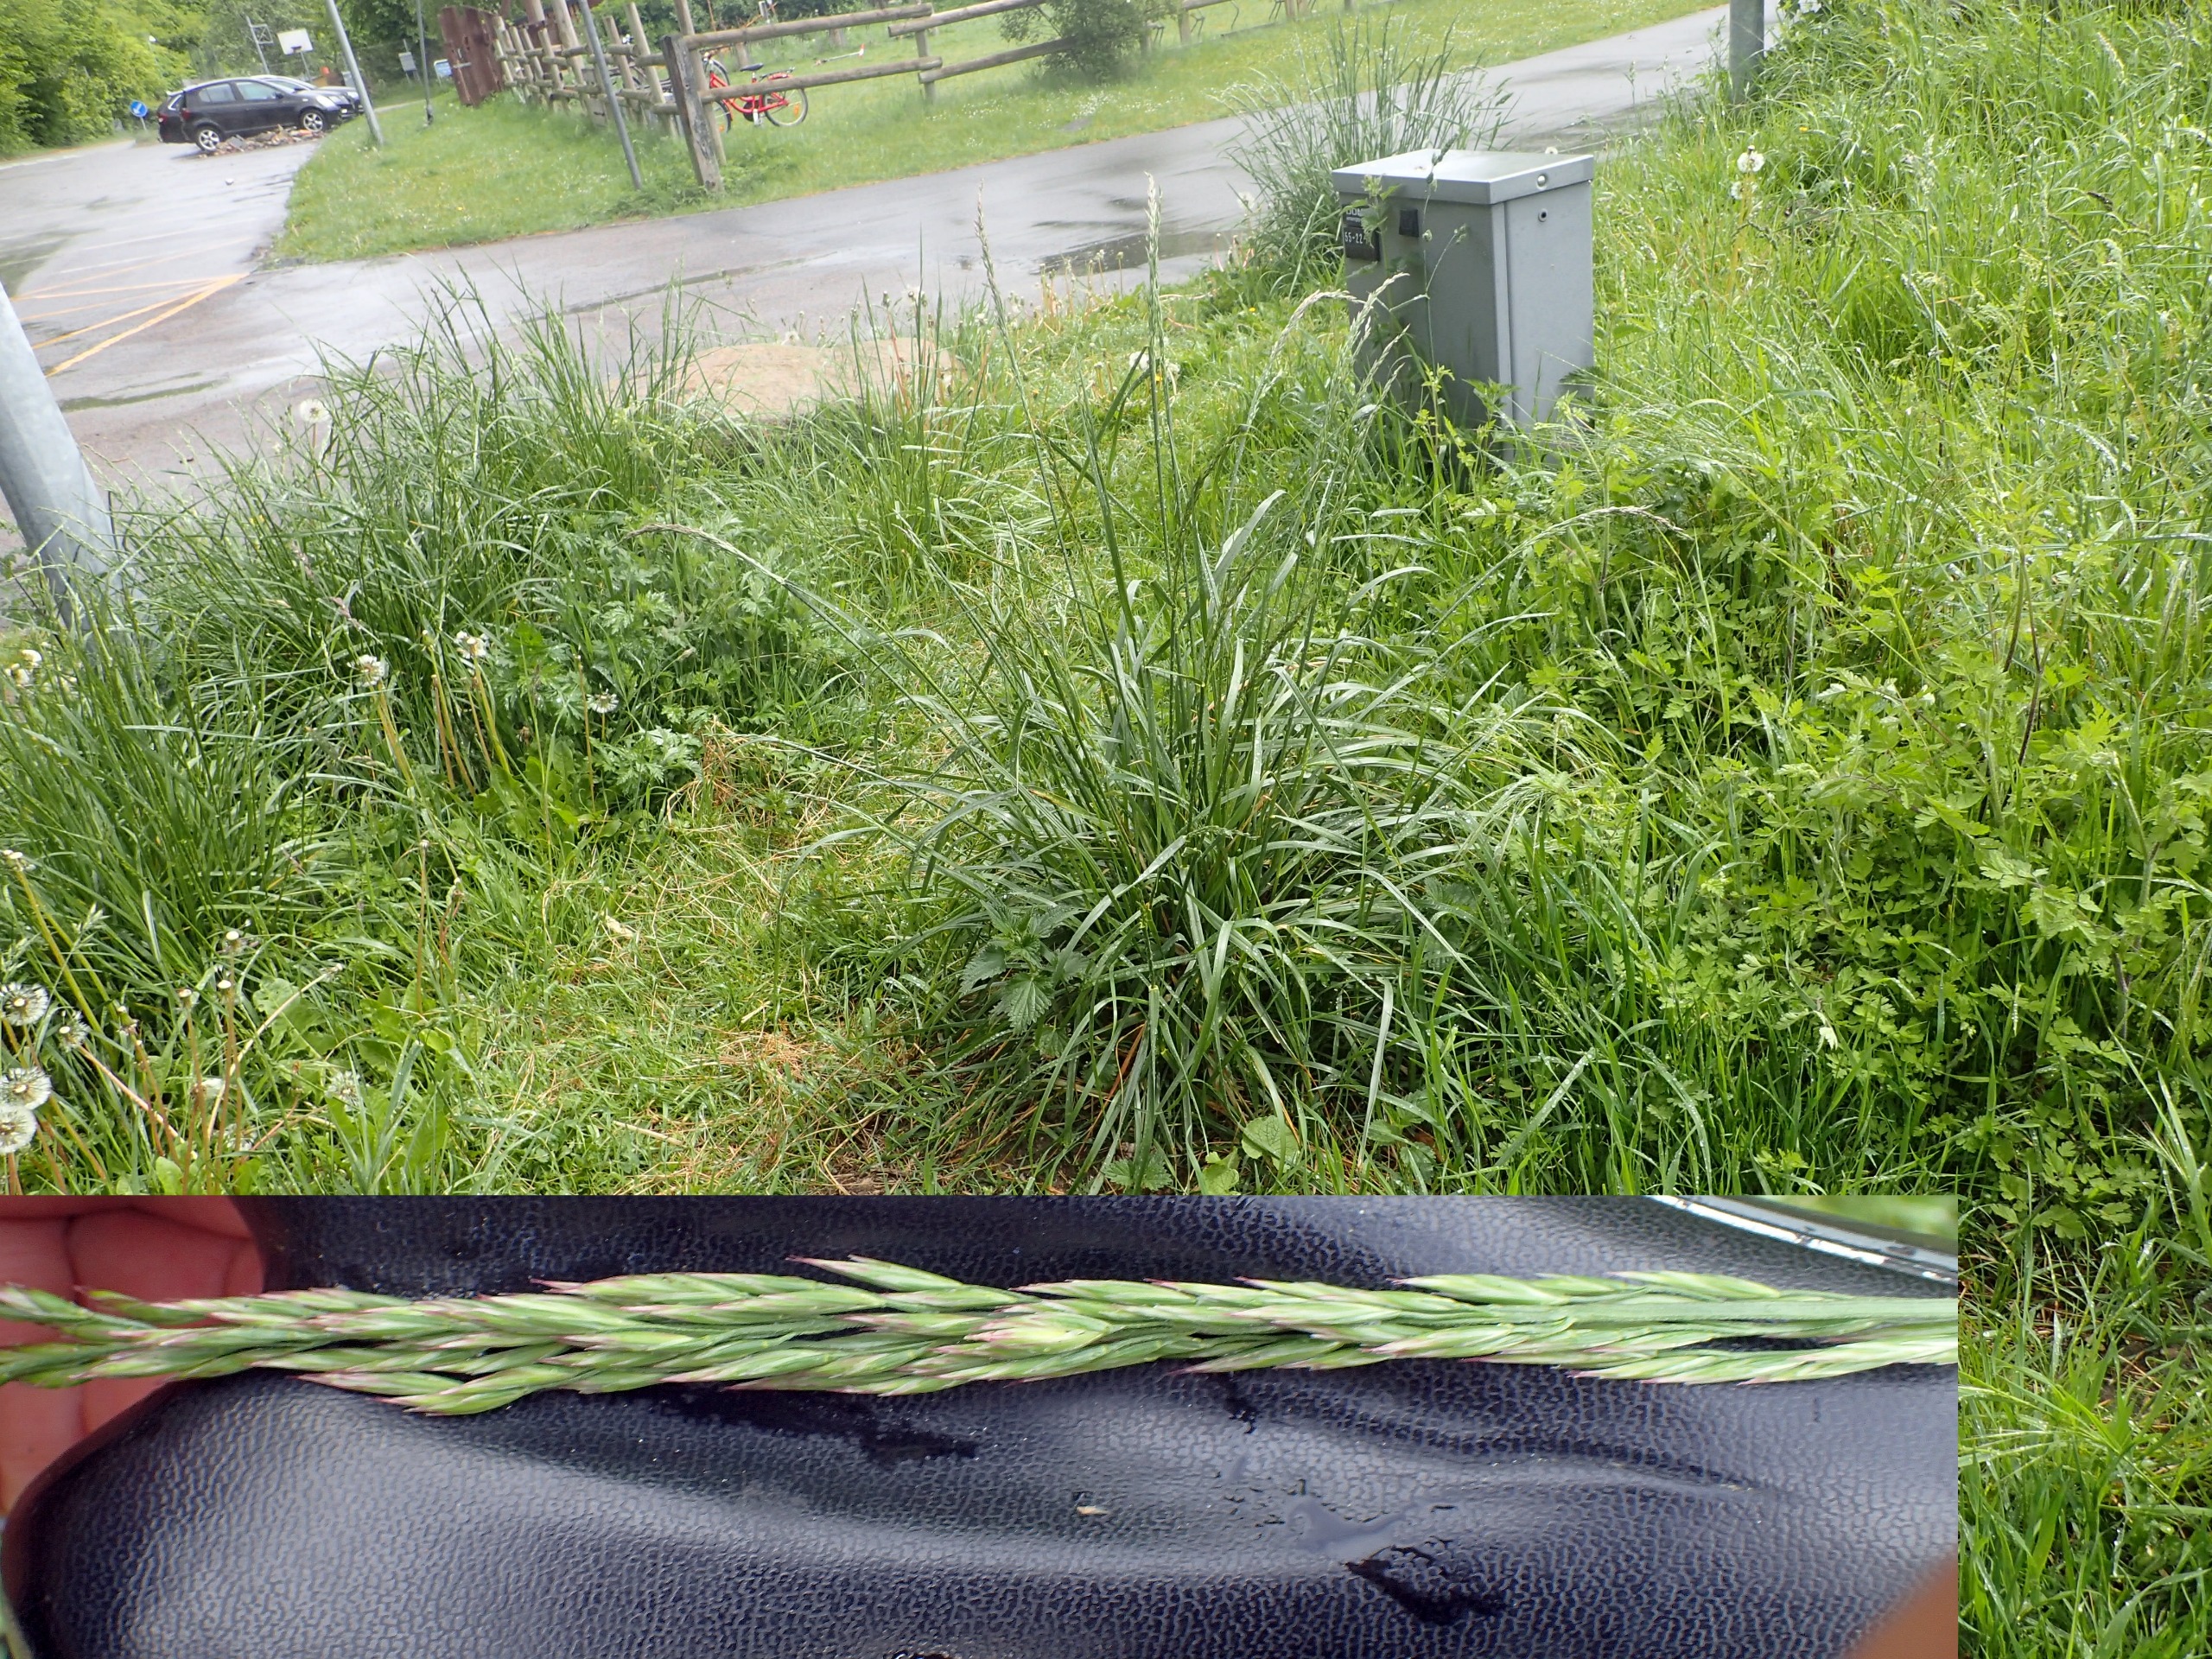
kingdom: Plantae
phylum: Tracheophyta
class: Liliopsida
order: Poales
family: Poaceae
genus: Lolium
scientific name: Lolium arundinaceum
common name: Strand-svingel
